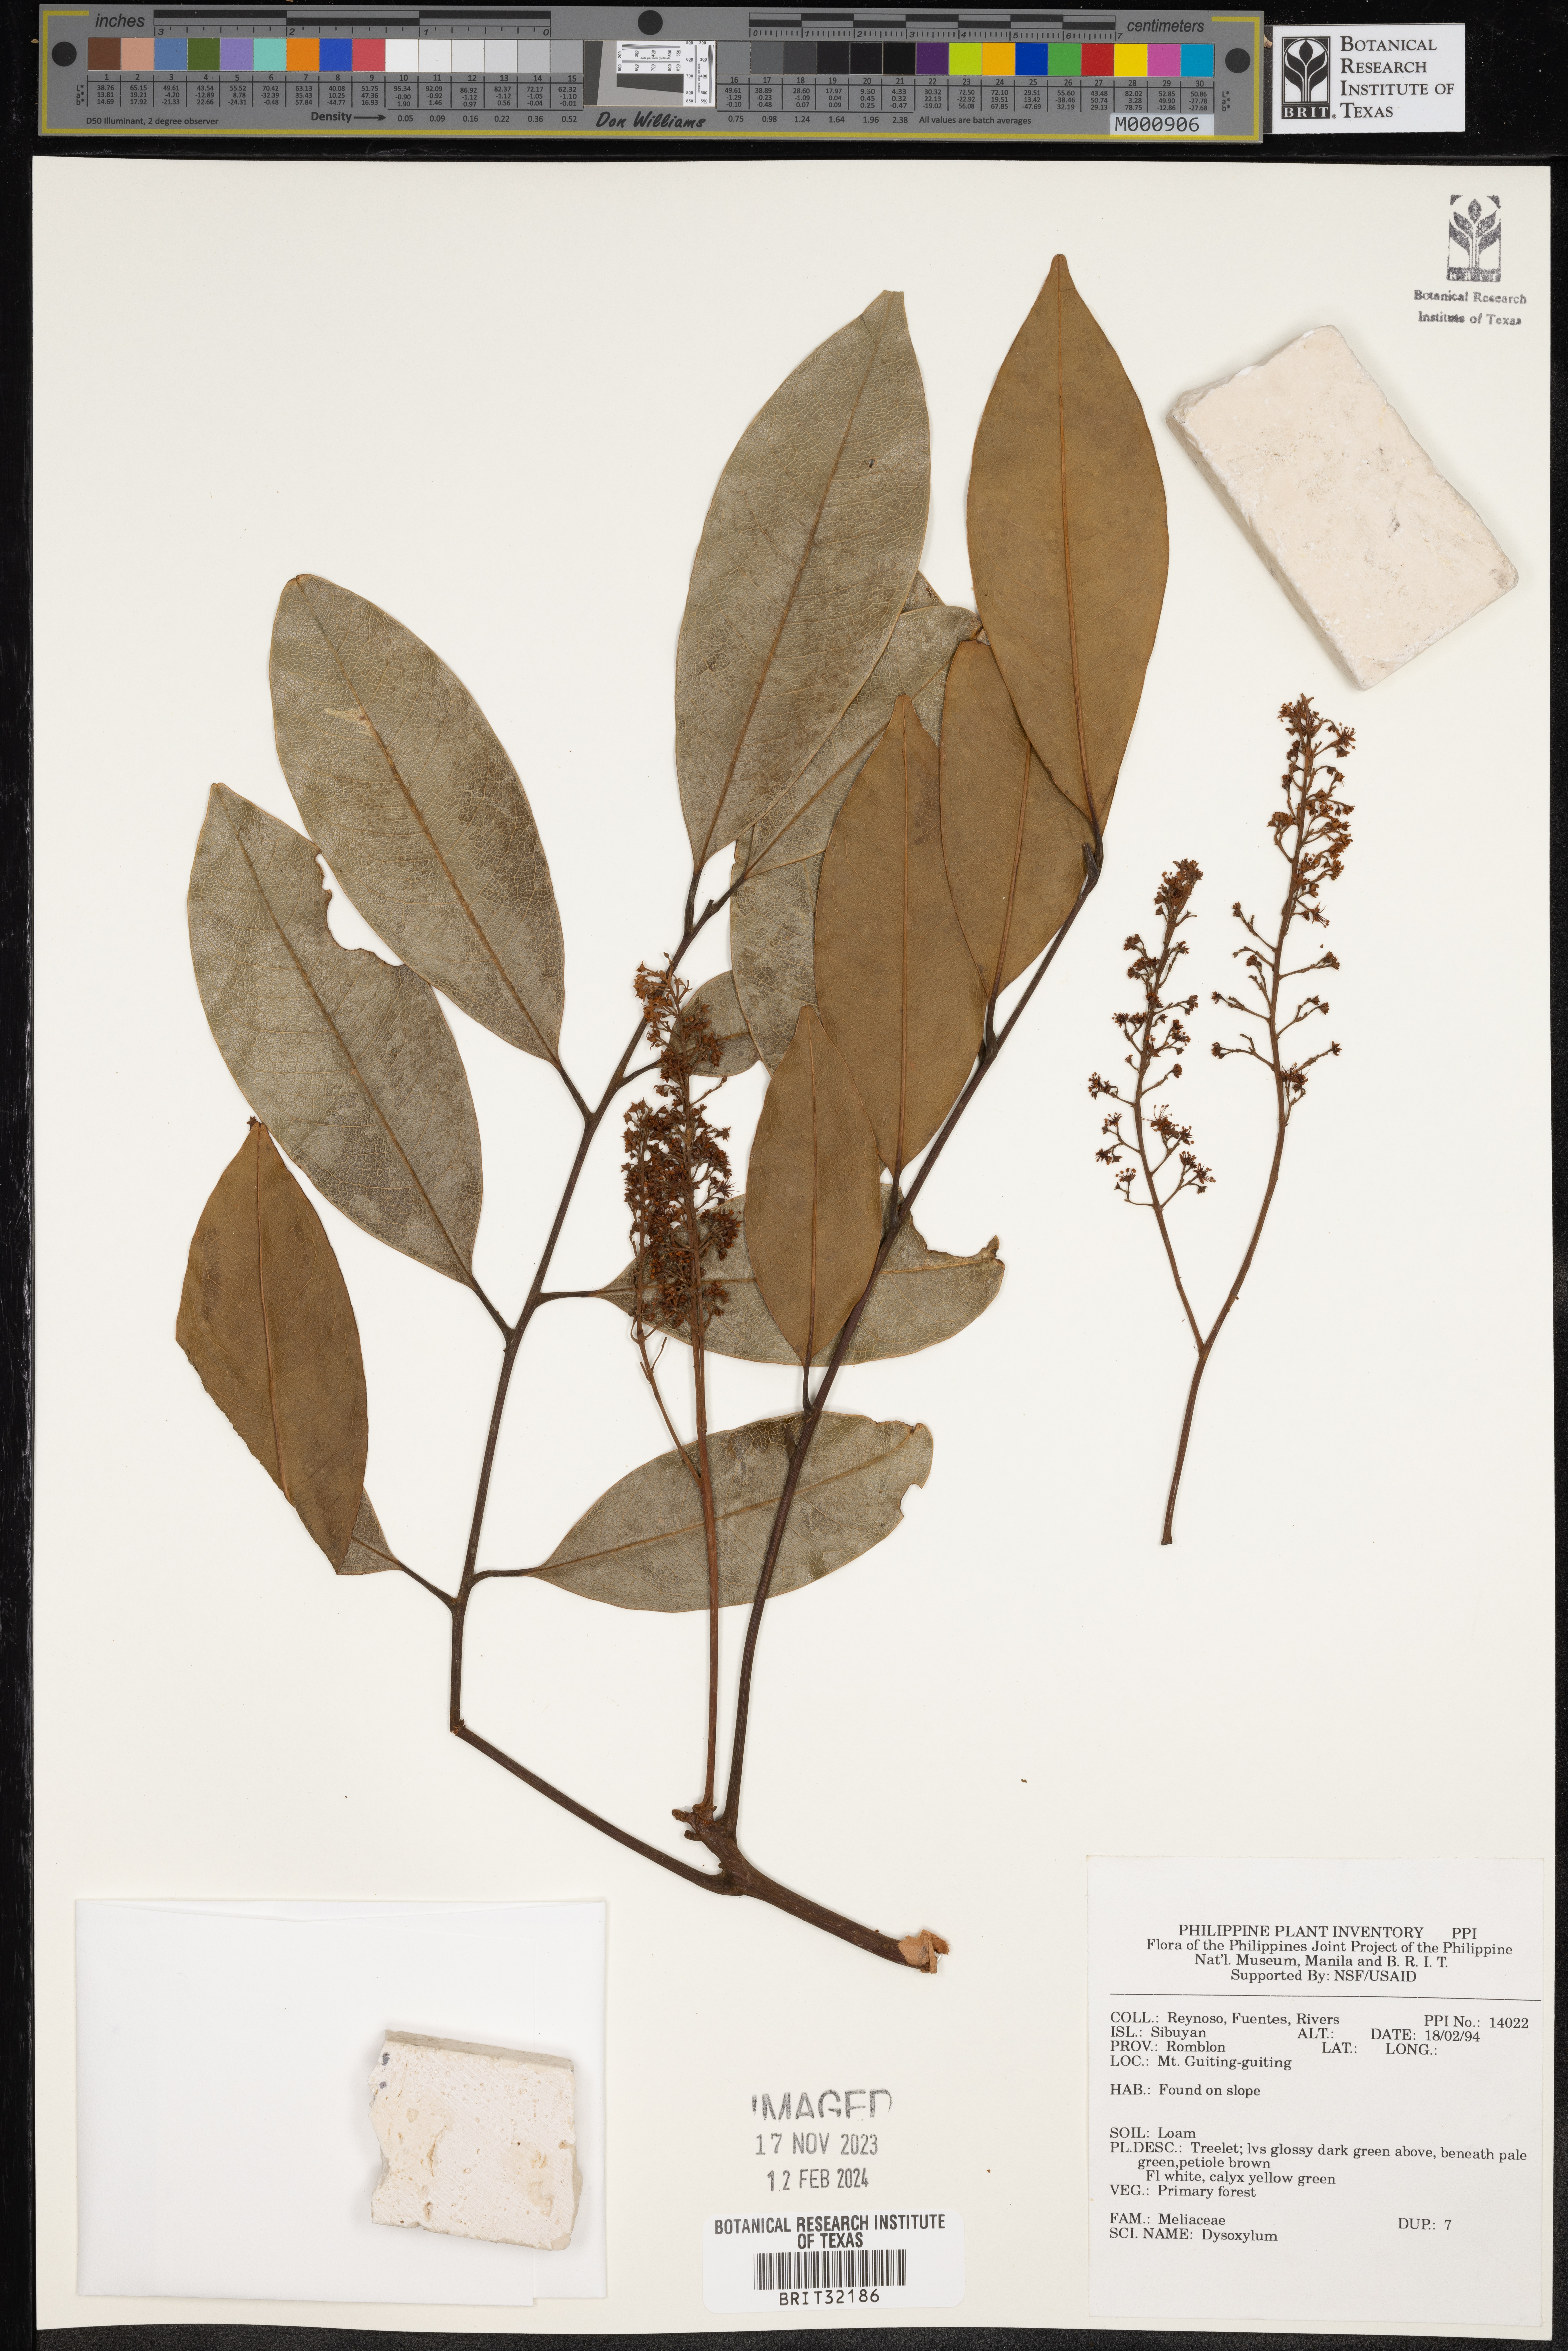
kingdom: Plantae
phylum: Tracheophyta
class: Magnoliopsida
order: Sapindales
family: Meliaceae
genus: Dysoxylum
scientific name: Dysoxylum
